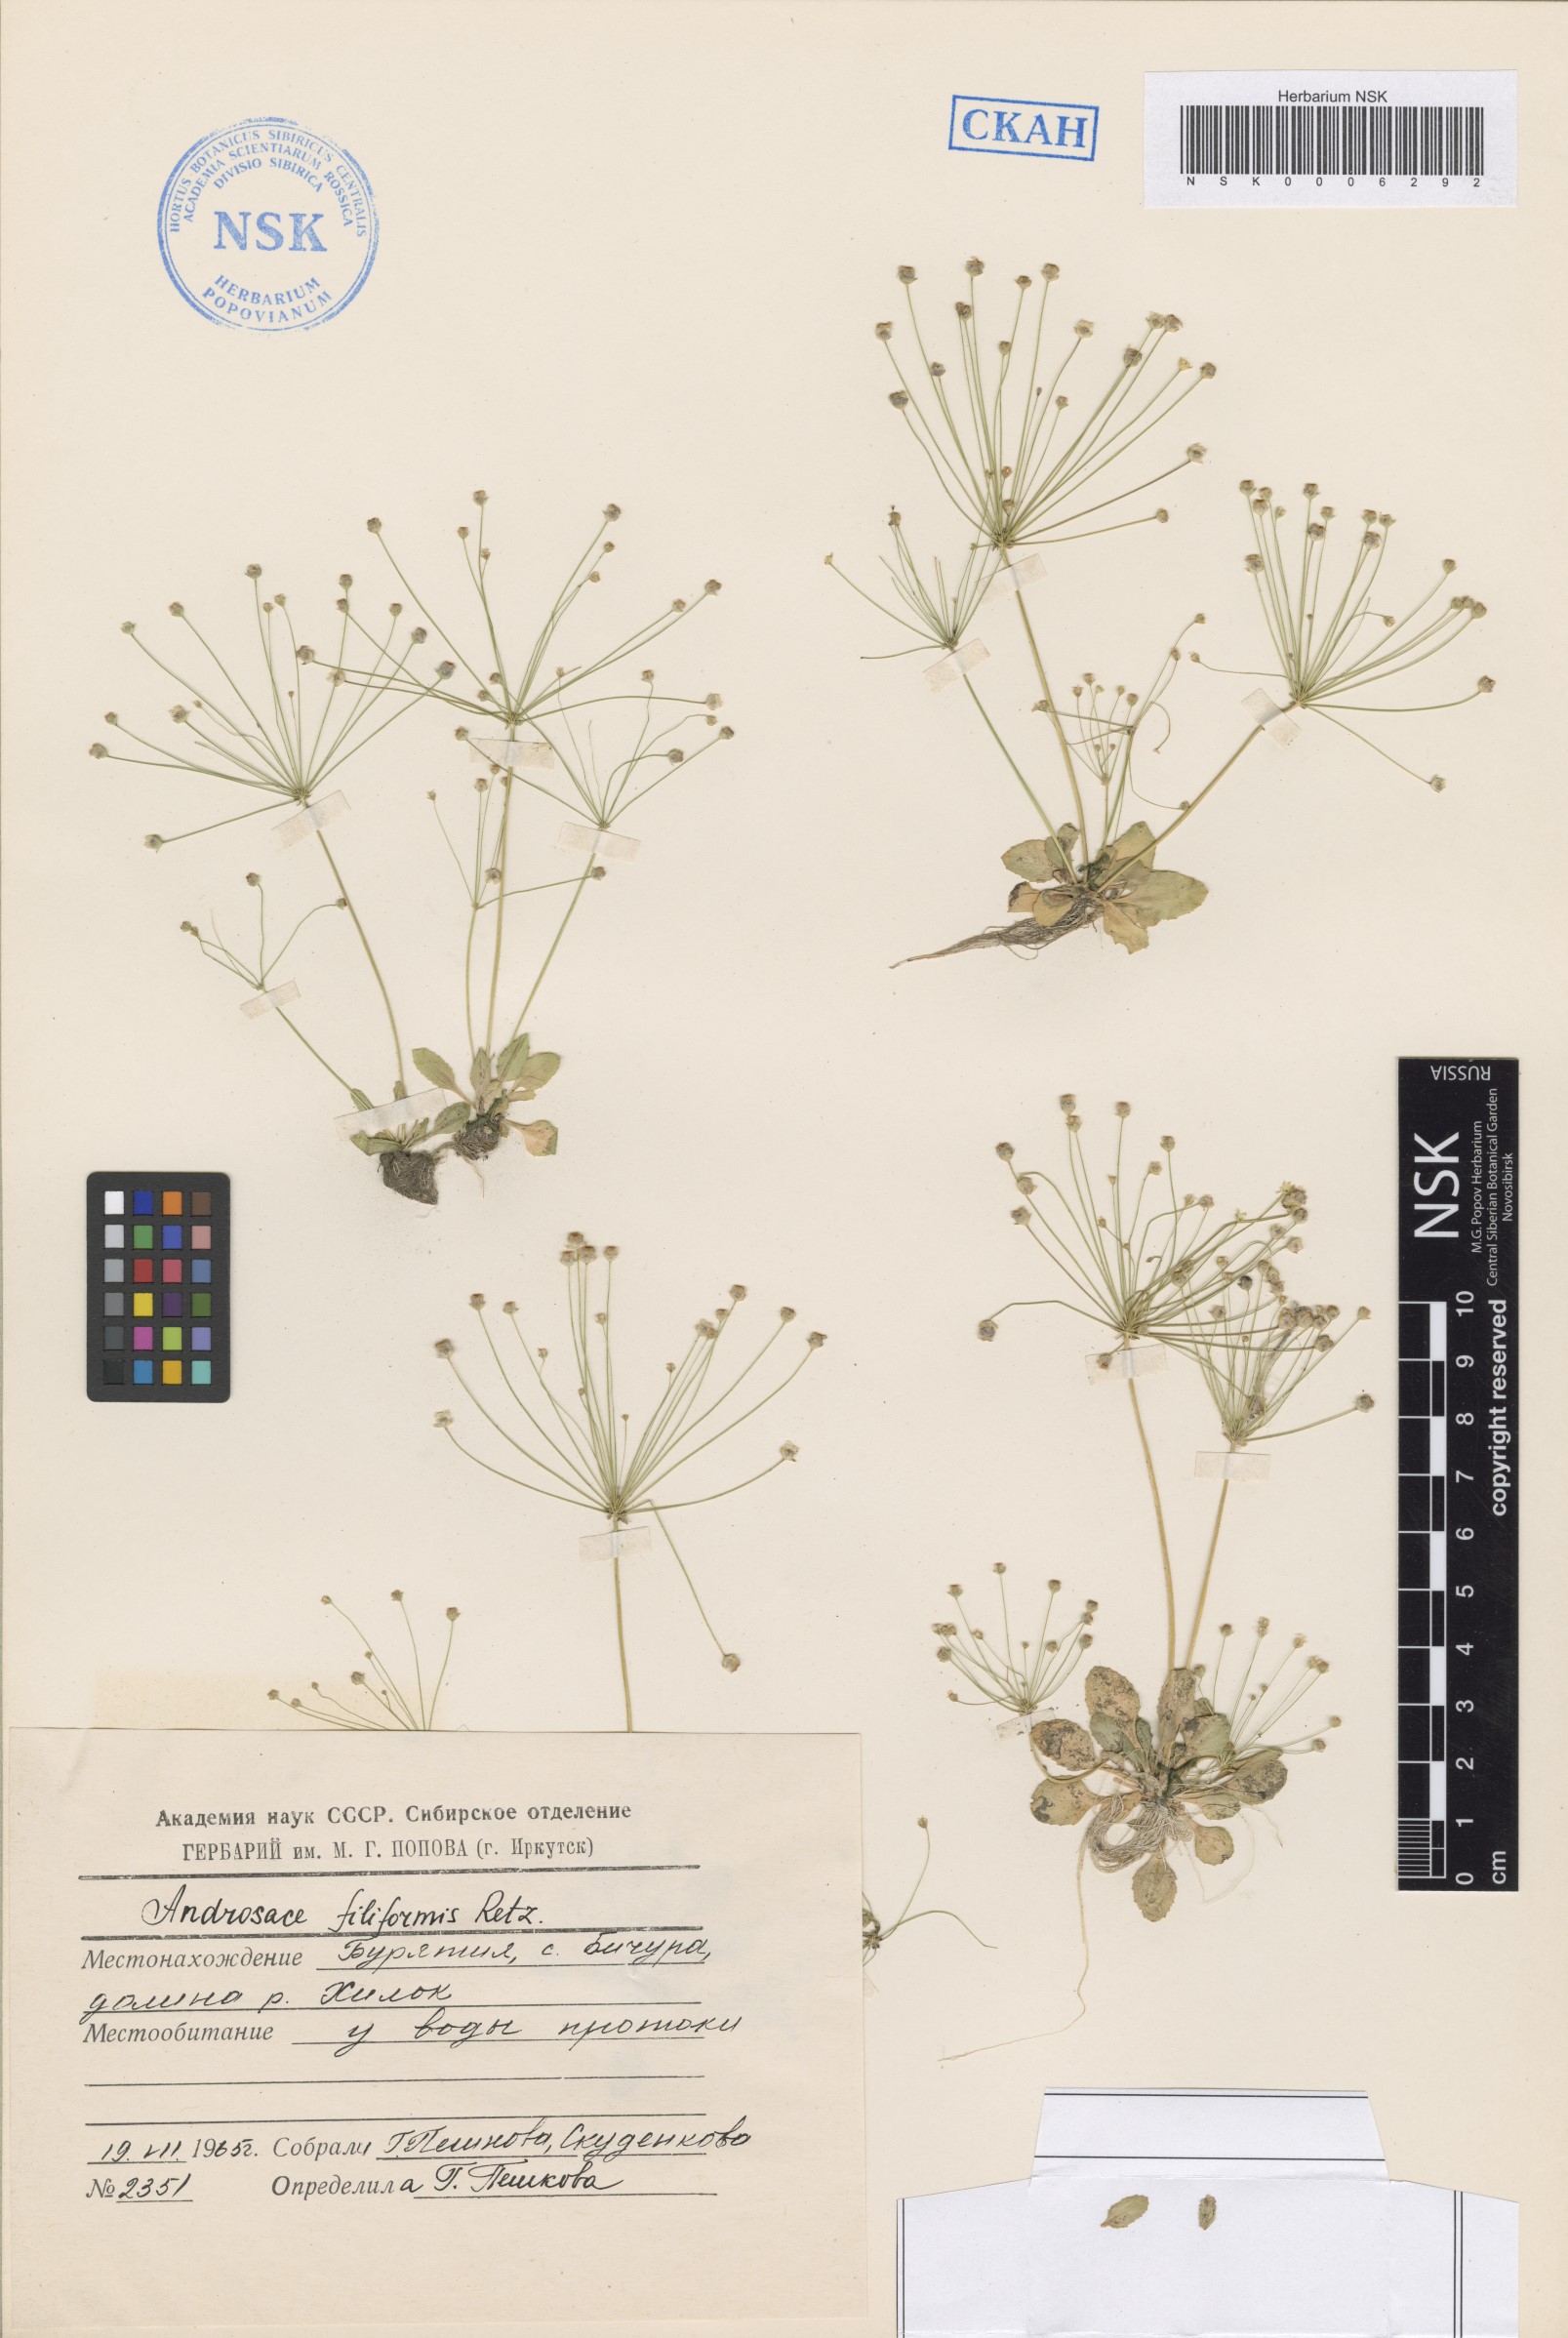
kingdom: Plantae
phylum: Tracheophyta
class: Magnoliopsida
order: Ericales
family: Primulaceae
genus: Androsace
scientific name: Androsace filiformis
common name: Filiform rock jasmine
